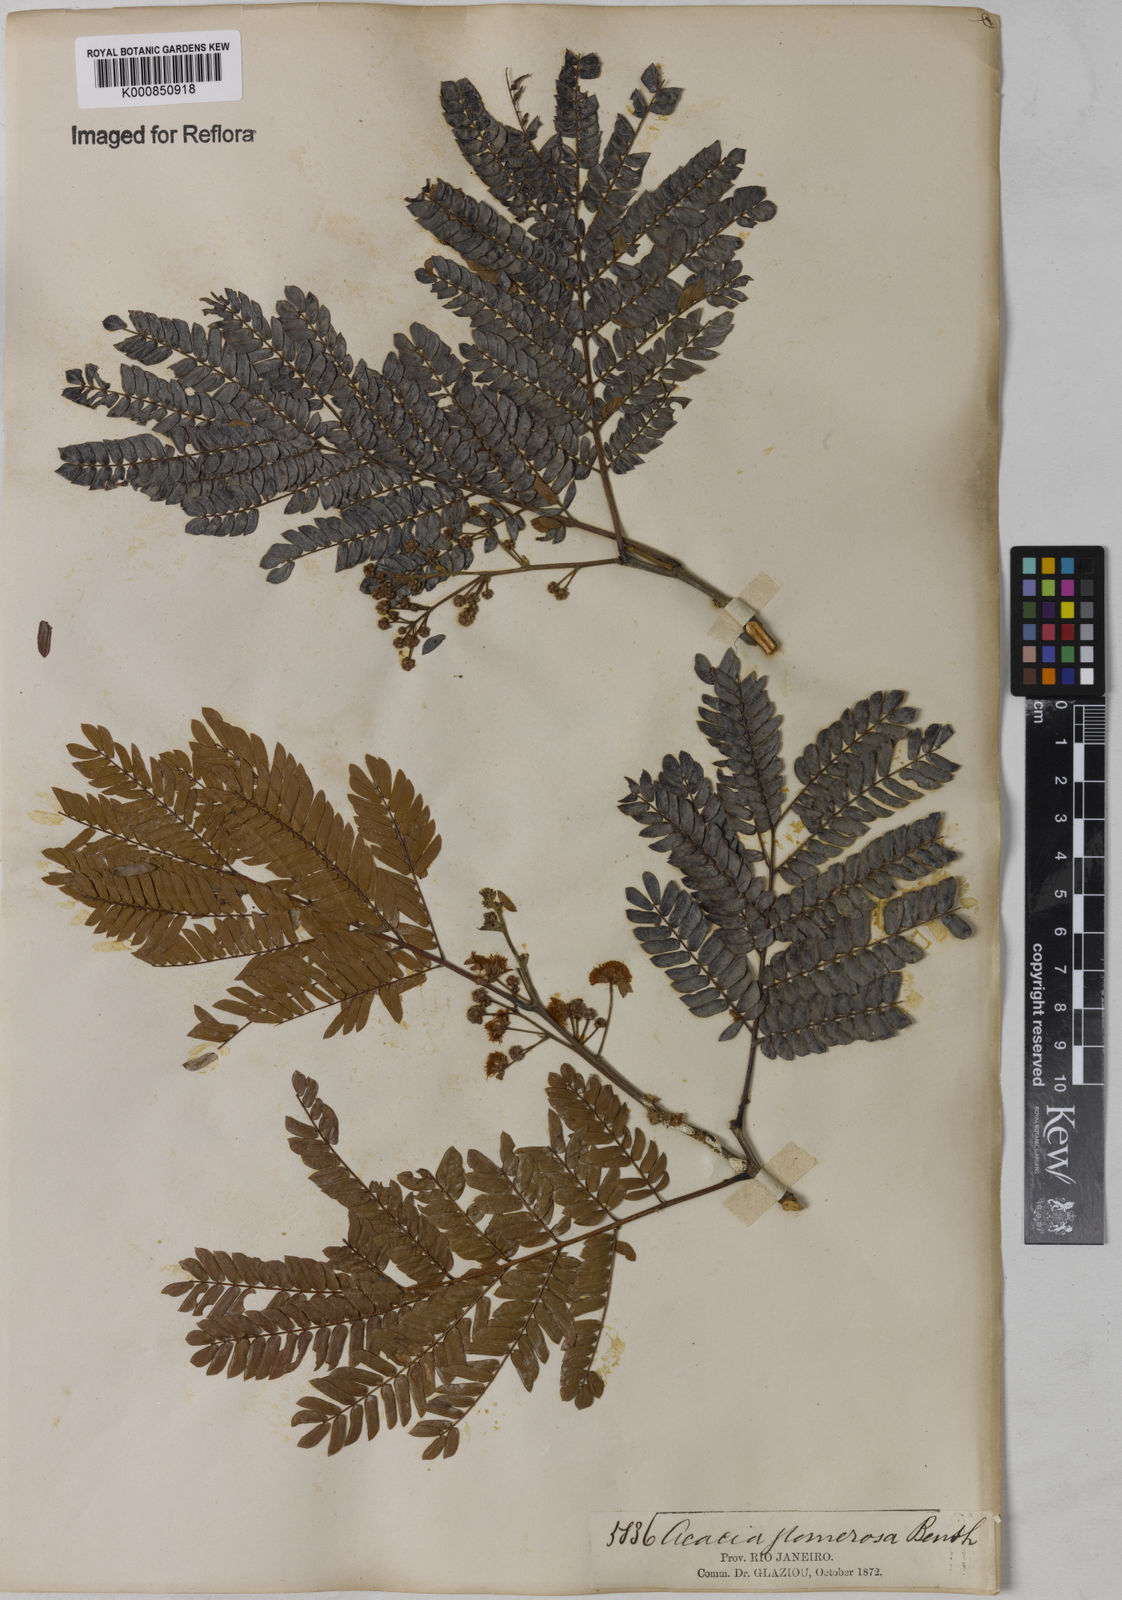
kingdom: Plantae
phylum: Tracheophyta
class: Magnoliopsida
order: Fabales
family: Fabaceae
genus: Senegalia
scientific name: Senegalia polyphylla
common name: White-tamarind
